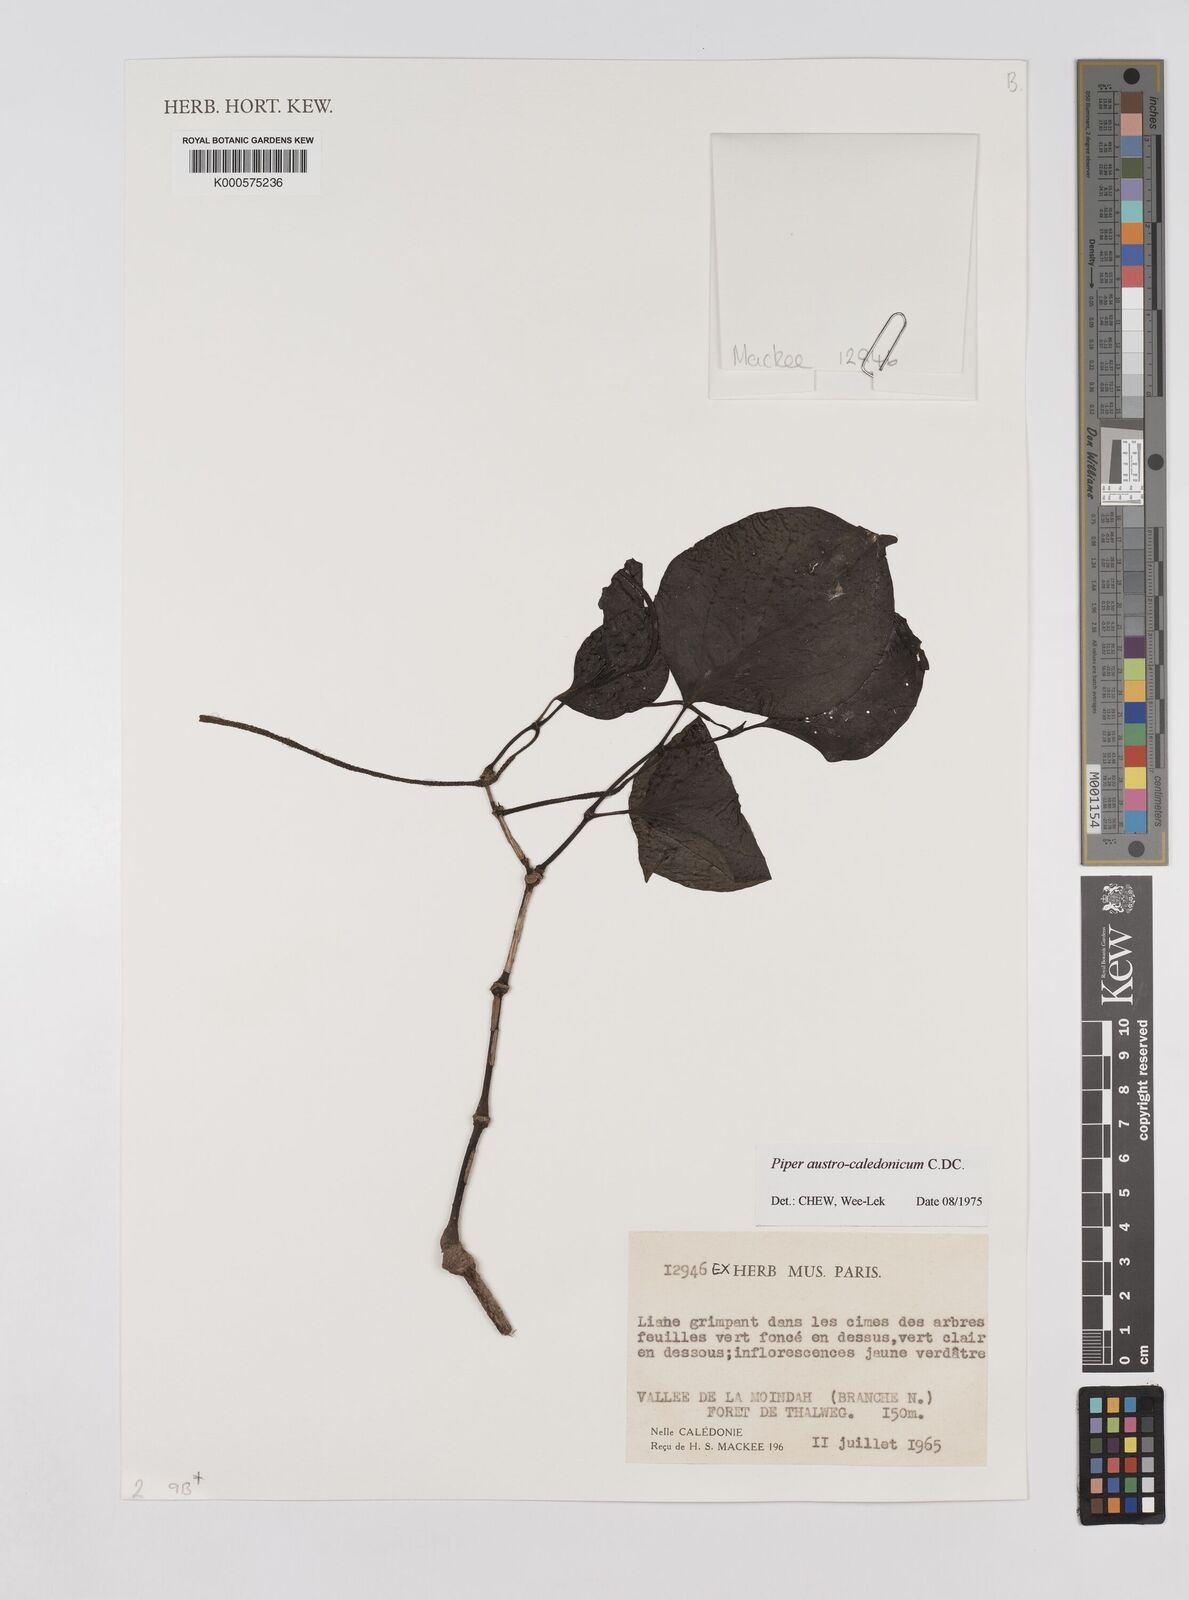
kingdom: Plantae
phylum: Tracheophyta
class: Magnoliopsida
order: Piperales
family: Piperaceae
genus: Piper
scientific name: Piper insectifugum
